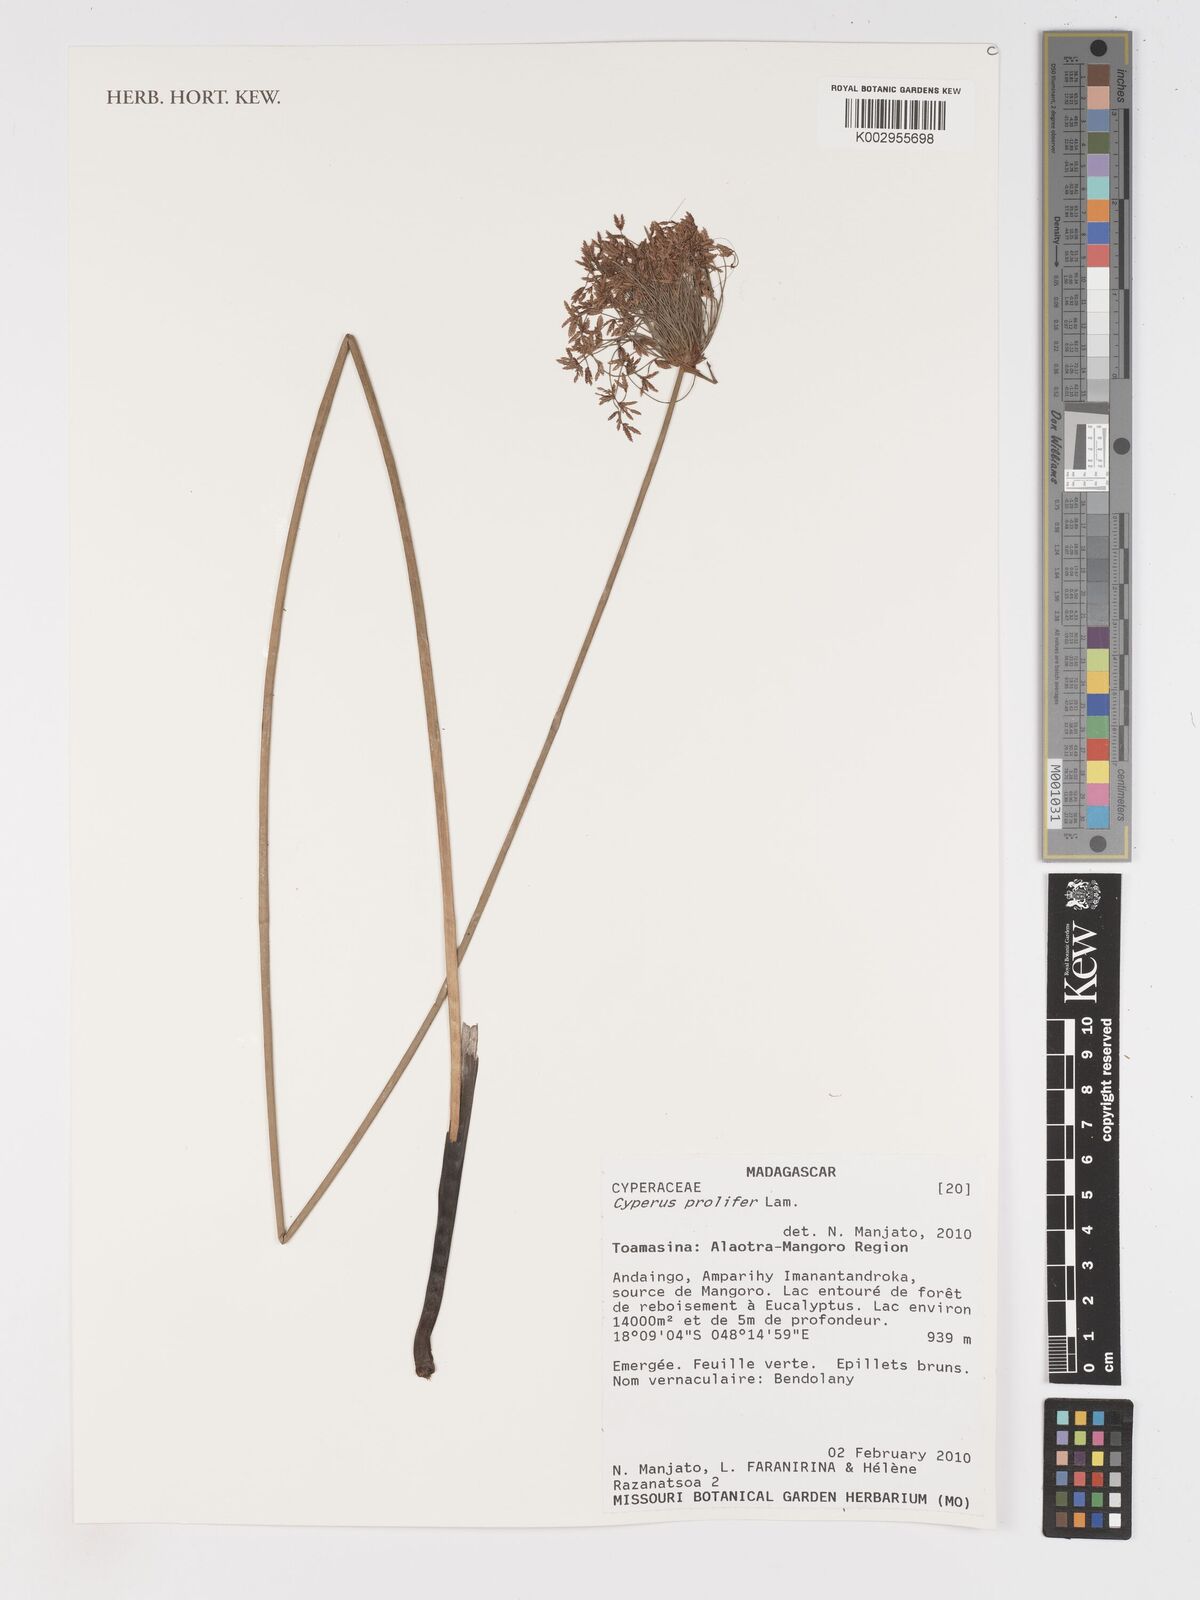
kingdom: Plantae
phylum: Tracheophyta
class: Liliopsida
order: Poales
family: Cyperaceae
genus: Cyperus
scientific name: Cyperus prolifer
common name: Miniature flatsedge
